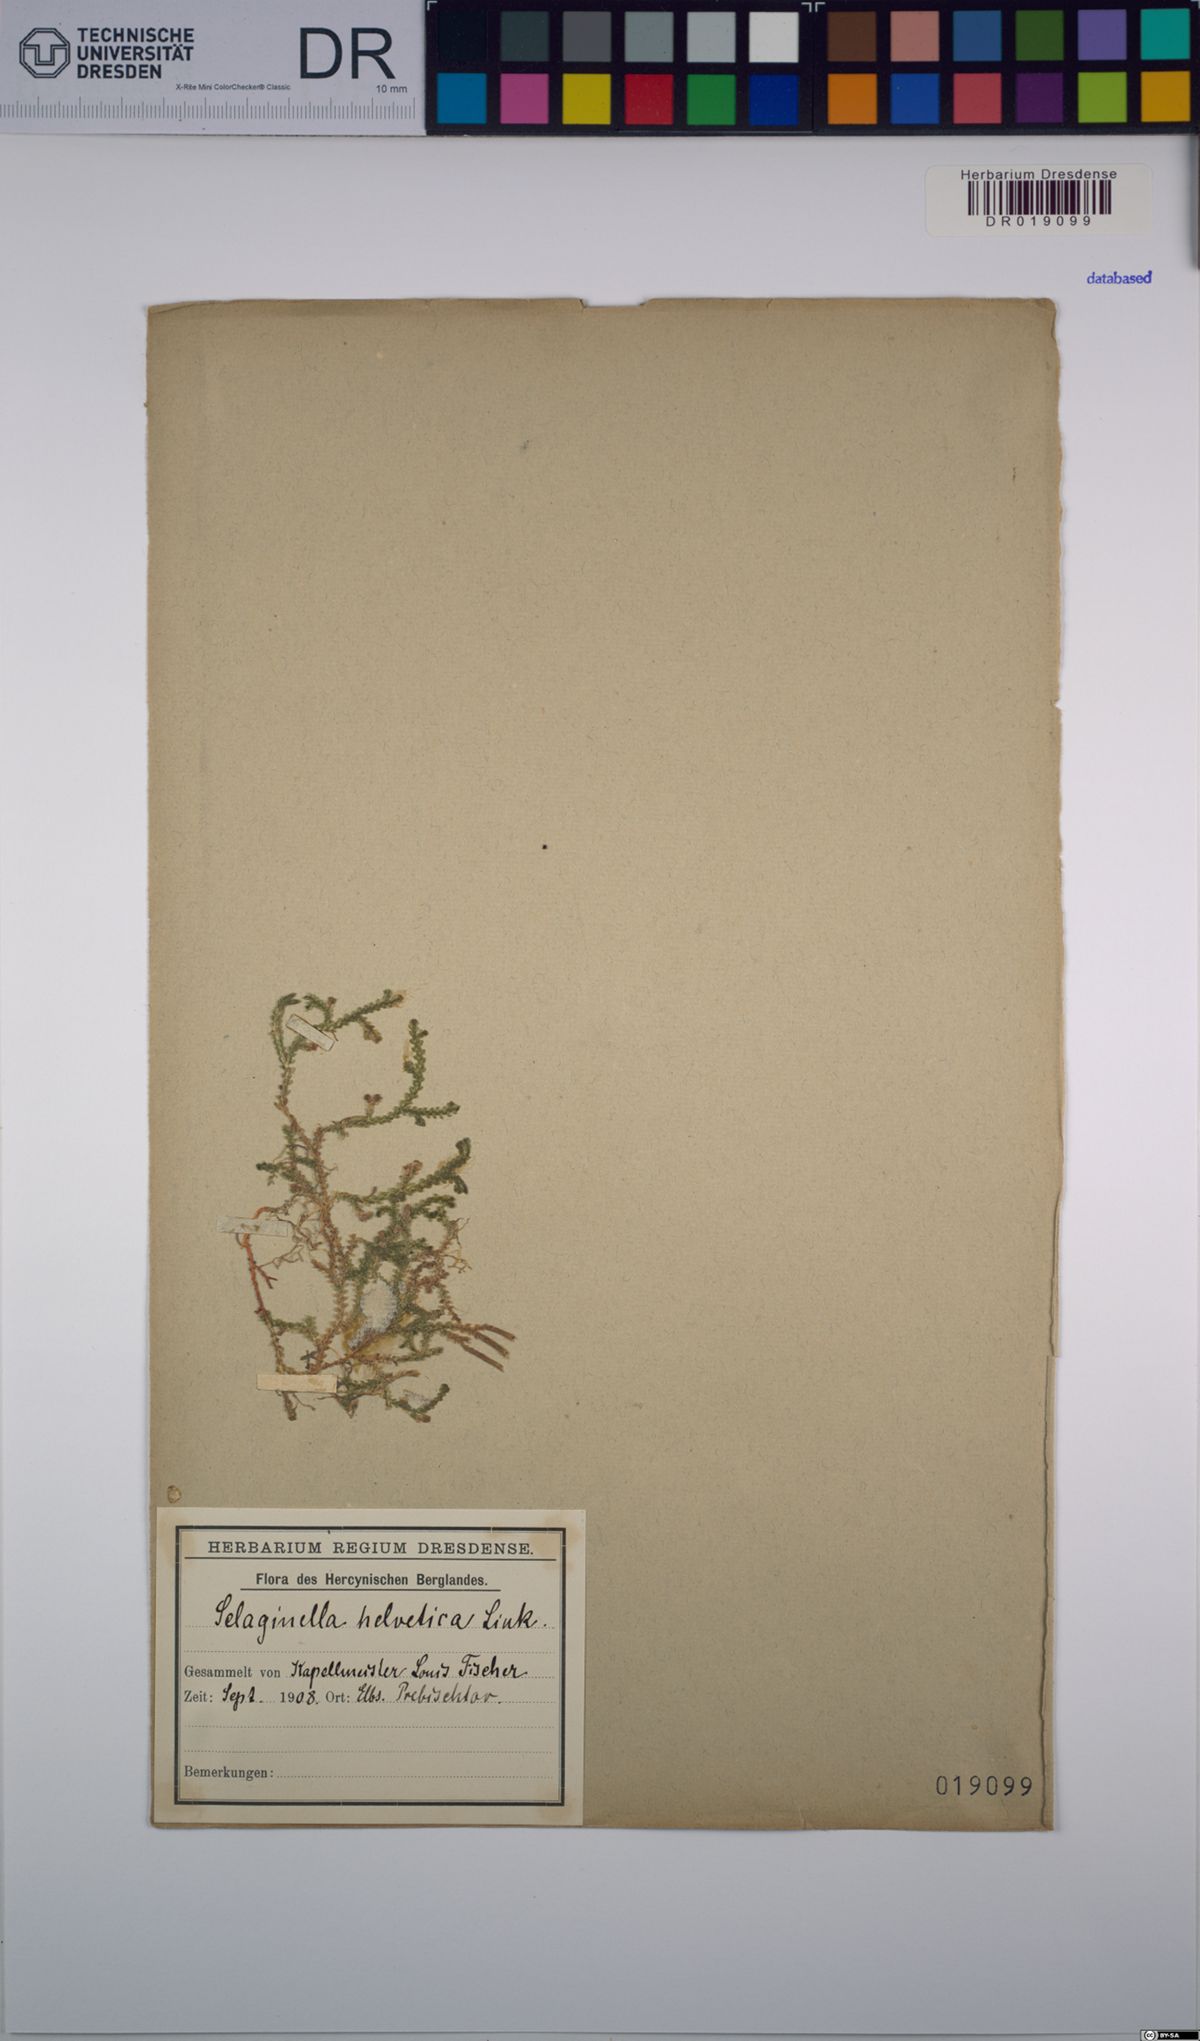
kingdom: Plantae
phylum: Tracheophyta
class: Lycopodiopsida
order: Selaginellales
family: Selaginellaceae
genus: Selaginella
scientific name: Selaginella helvetica
